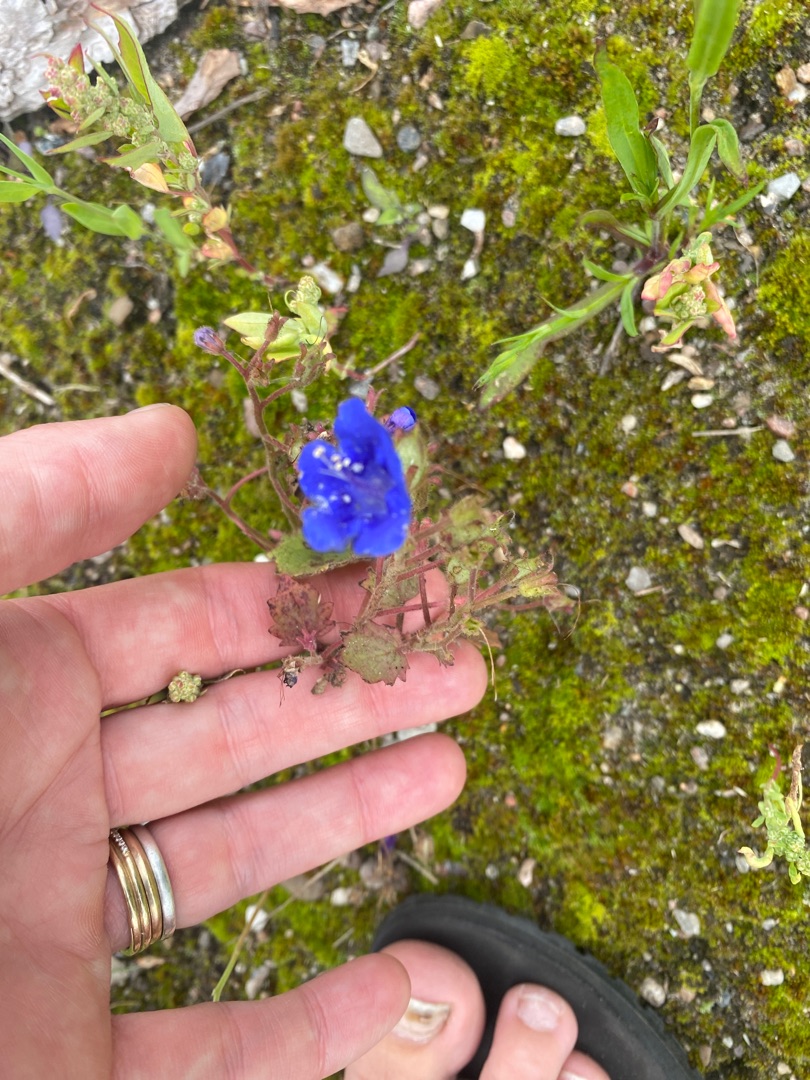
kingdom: Plantae
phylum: Tracheophyta
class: Magnoliopsida
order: Boraginales
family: Hydrophyllaceae
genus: Phacelia
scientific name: Phacelia campanularia
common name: Klokke-honningurt
